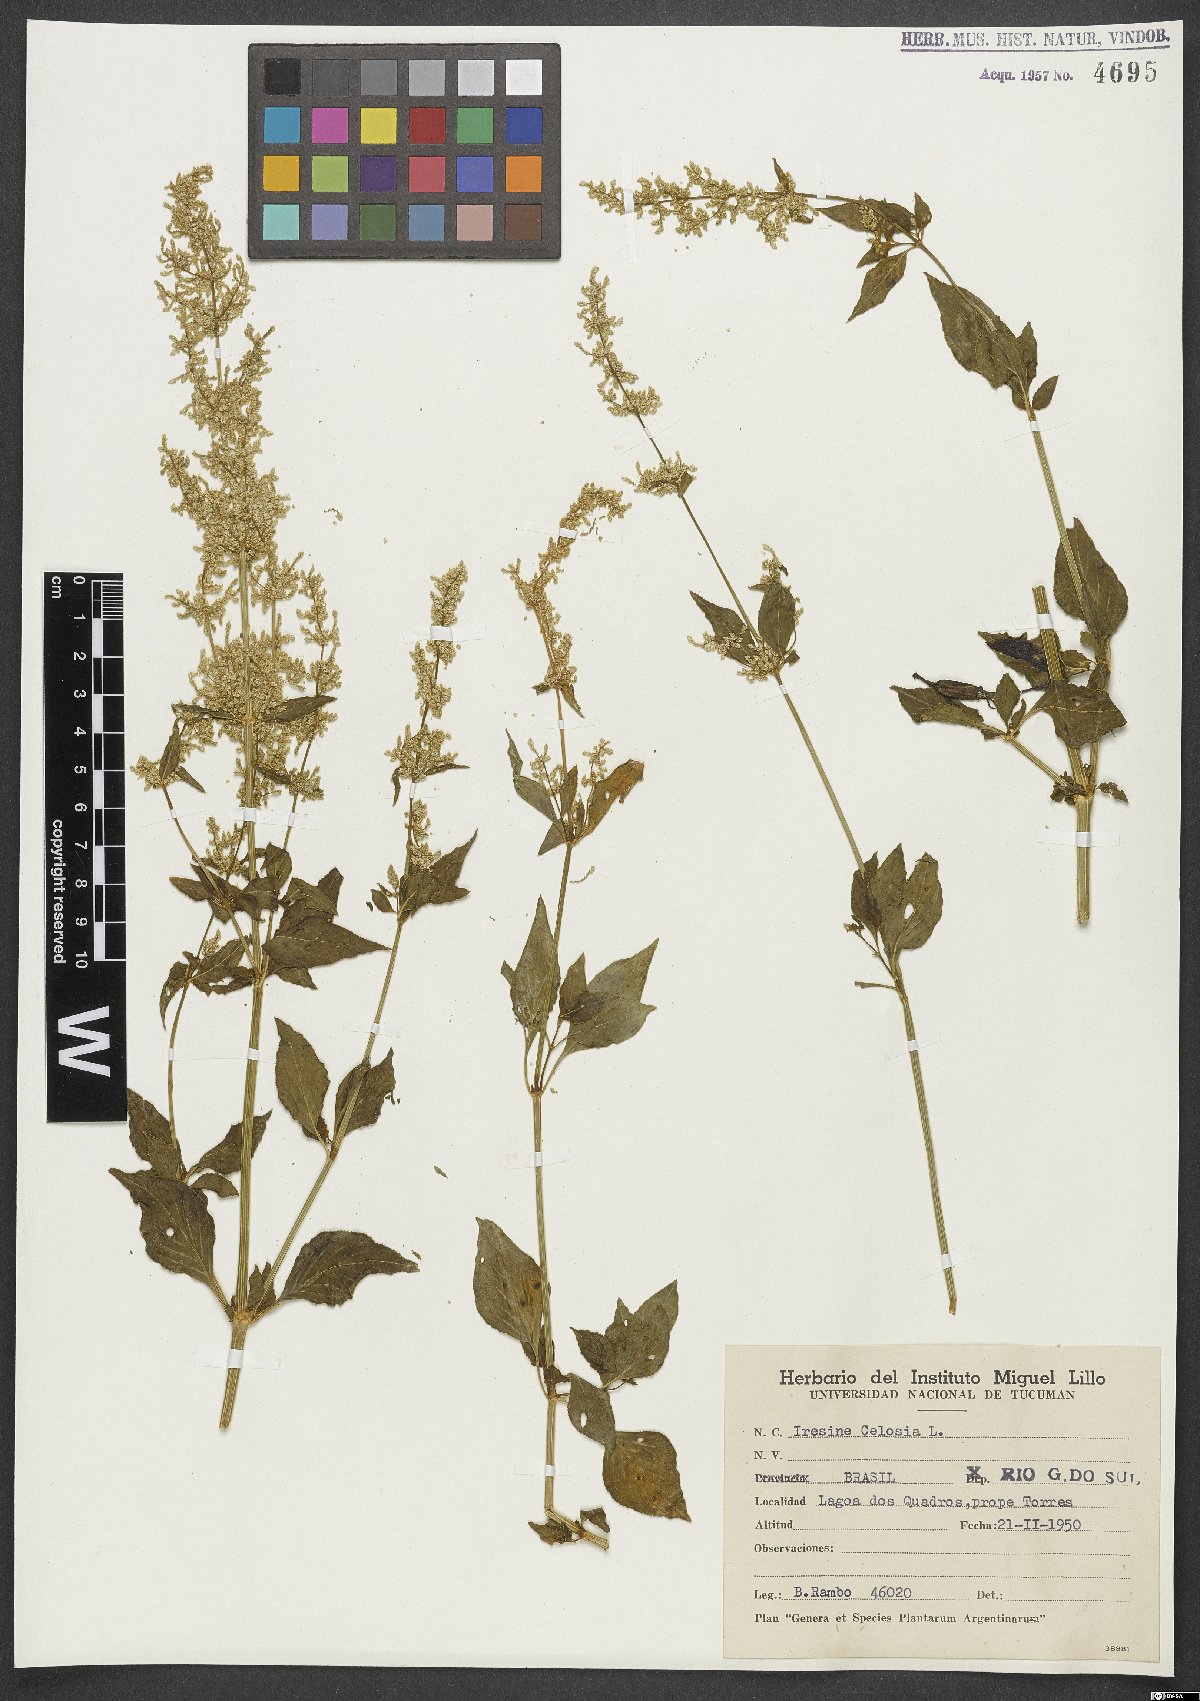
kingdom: Plantae
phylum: Tracheophyta
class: Magnoliopsida
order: Caryophyllales
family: Amaranthaceae
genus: Iresine
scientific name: Iresine rhizomatosa
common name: Juda's-bush
